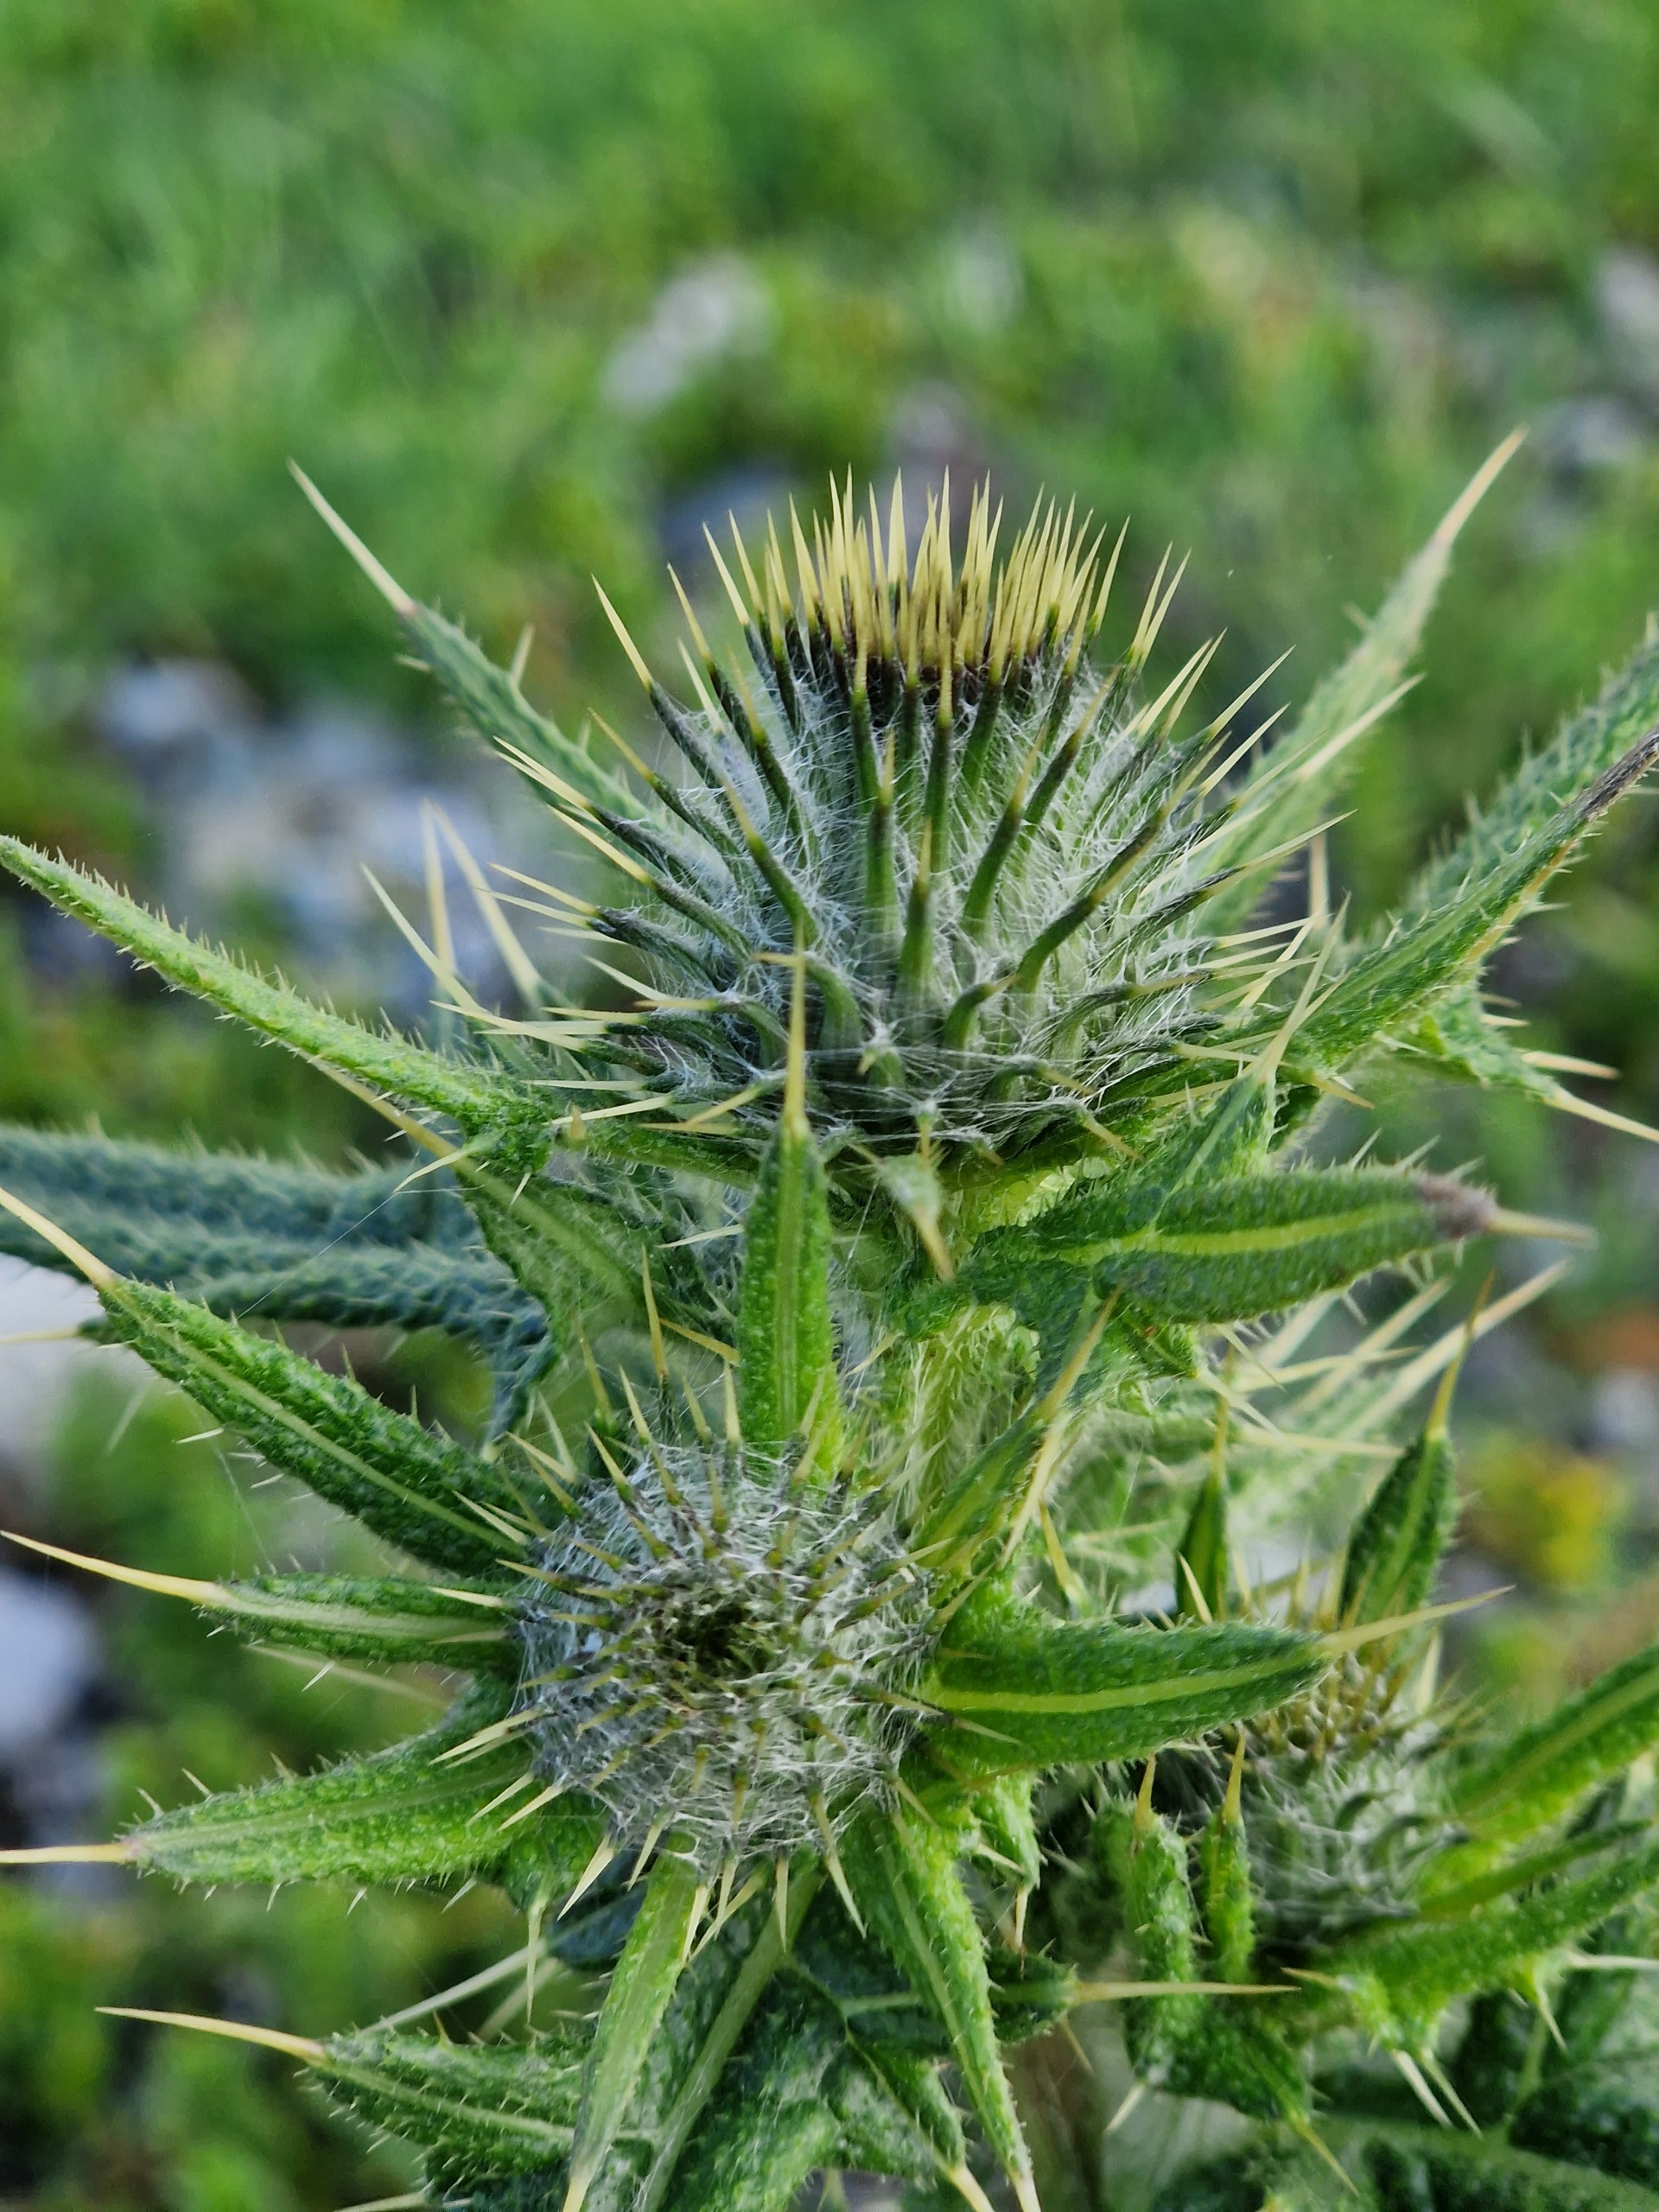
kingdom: Plantae
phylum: Tracheophyta
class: Magnoliopsida
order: Asterales
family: Asteraceae
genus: Cirsium
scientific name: Cirsium vulgare
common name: Horse-tidsel
